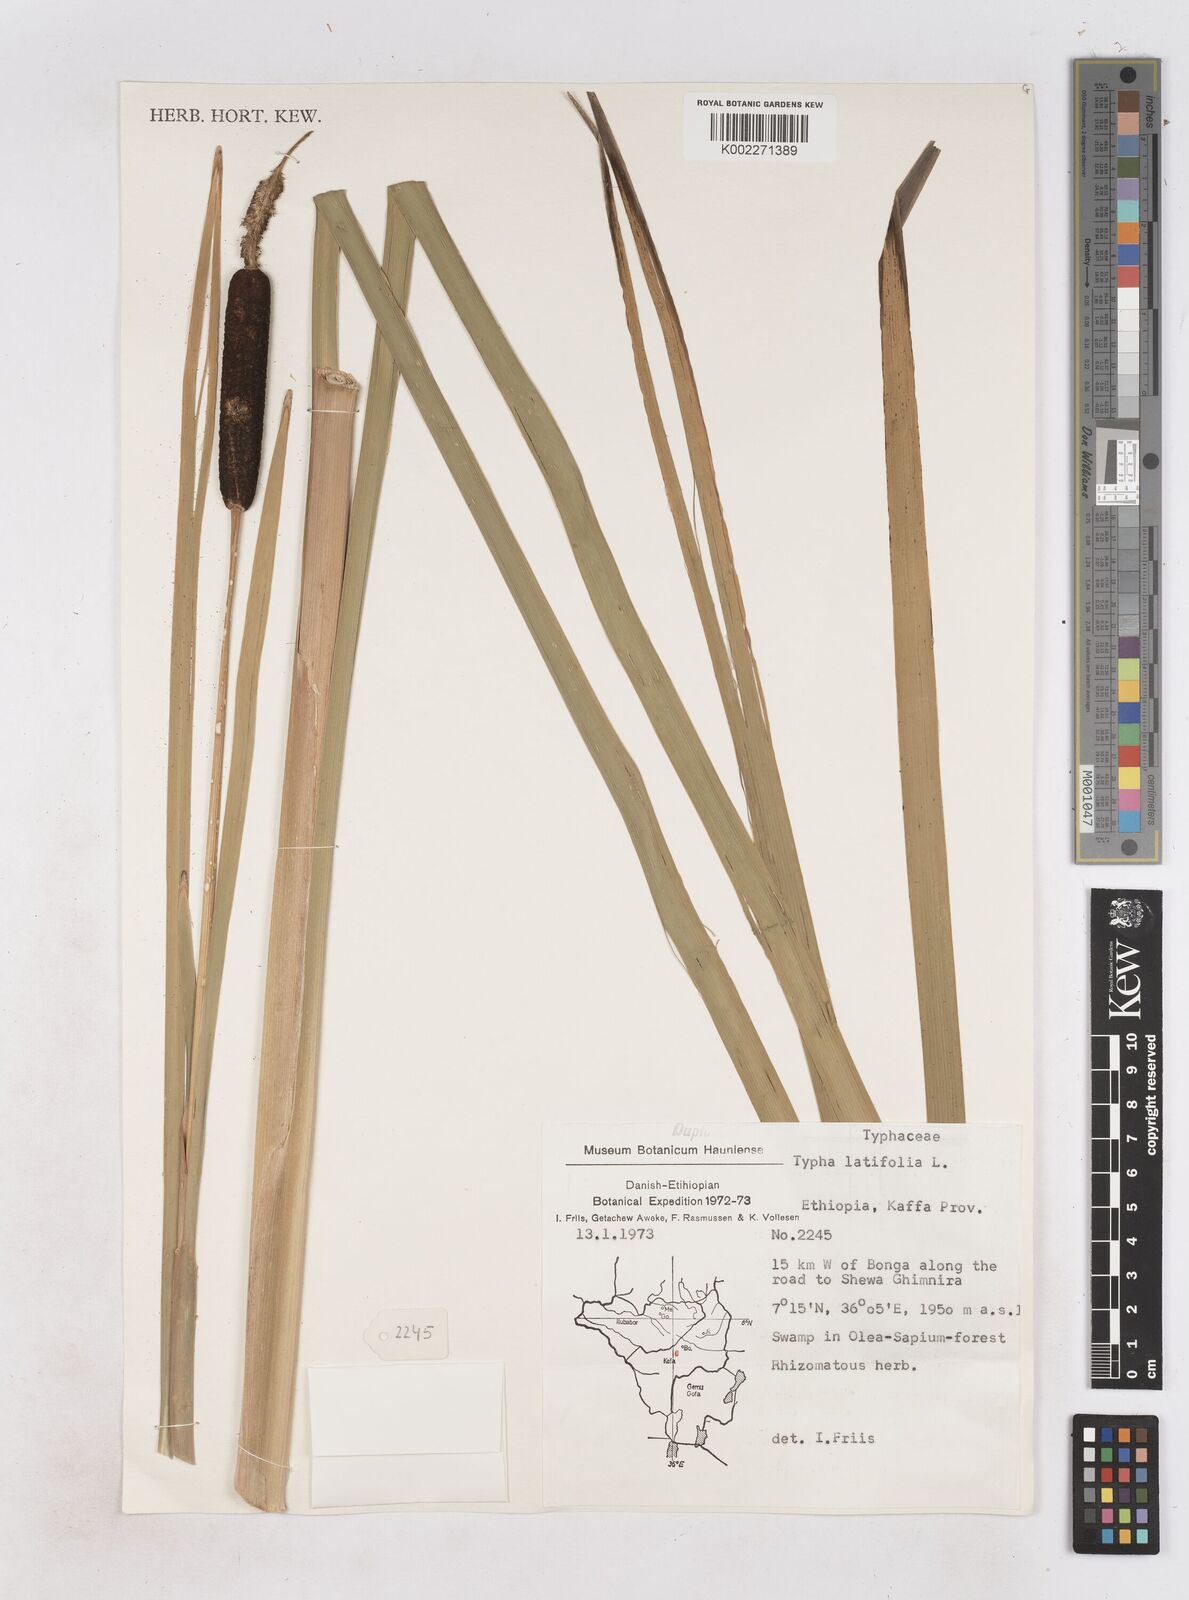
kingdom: Plantae
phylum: Tracheophyta
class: Liliopsida
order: Poales
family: Typhaceae
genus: Typha
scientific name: Typha latifolia
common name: Broadleaf cattail
